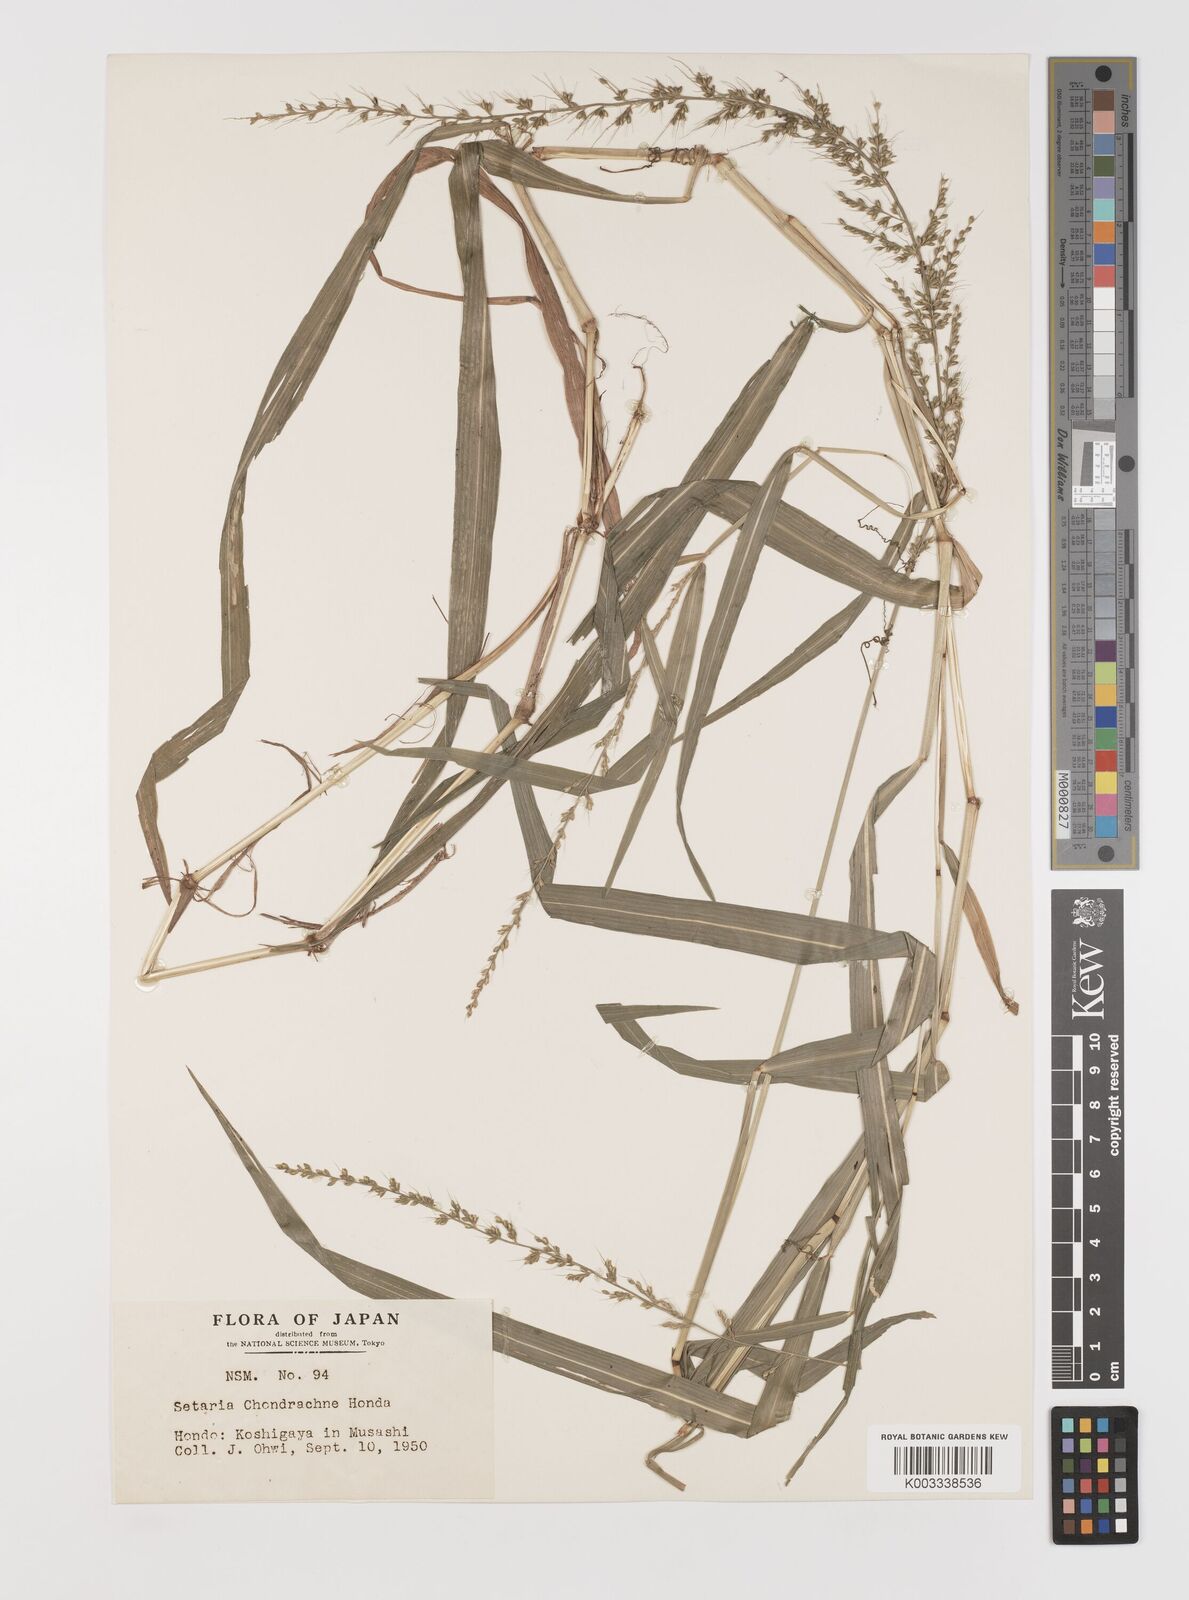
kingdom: Plantae
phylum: Tracheophyta
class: Liliopsida
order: Poales
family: Poaceae
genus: Setaria
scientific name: Setaria chondrachne
